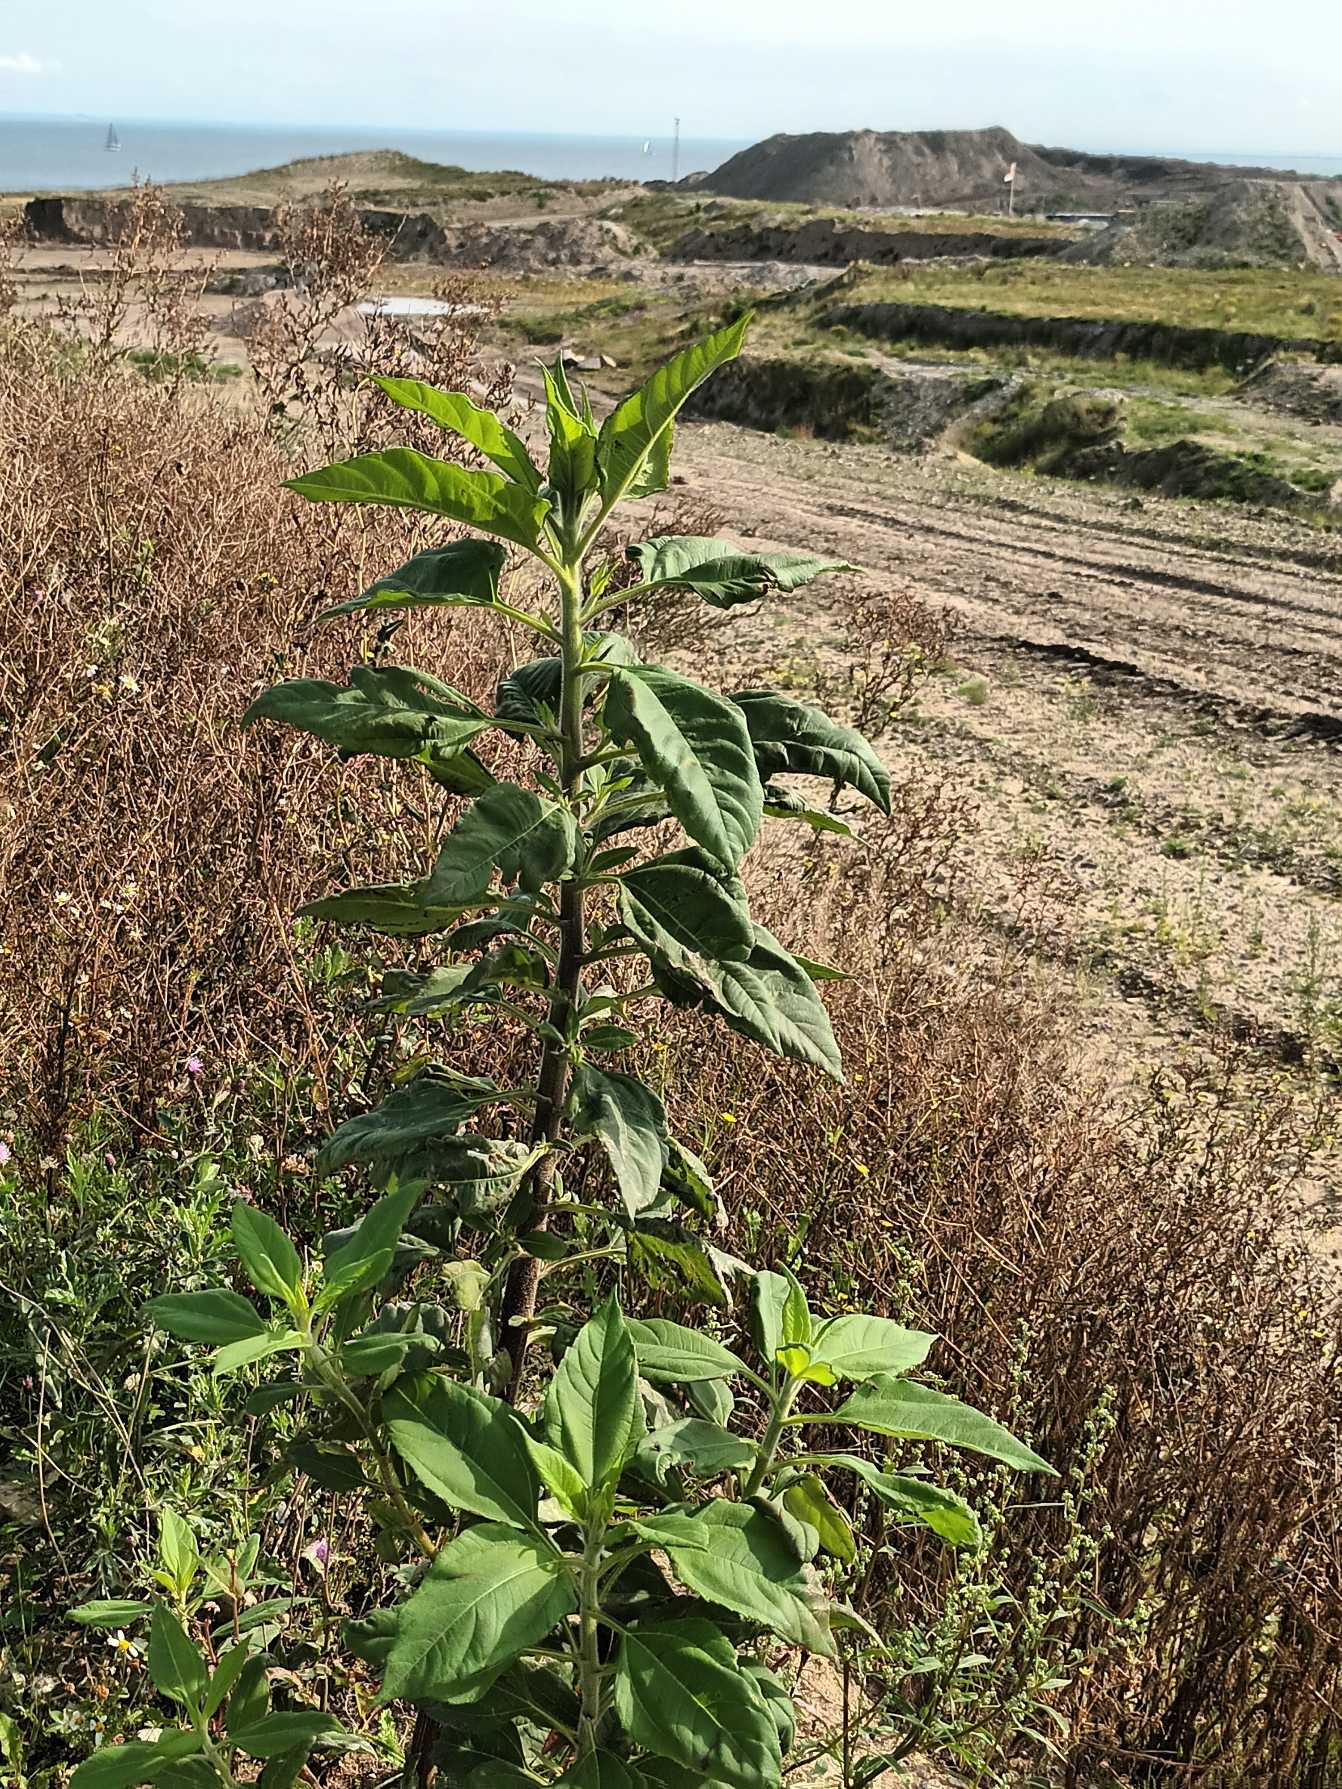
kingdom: Plantae
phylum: Tracheophyta
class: Magnoliopsida
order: Asterales
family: Asteraceae
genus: Helianthus
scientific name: Helianthus tuberosus
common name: Jordskok
